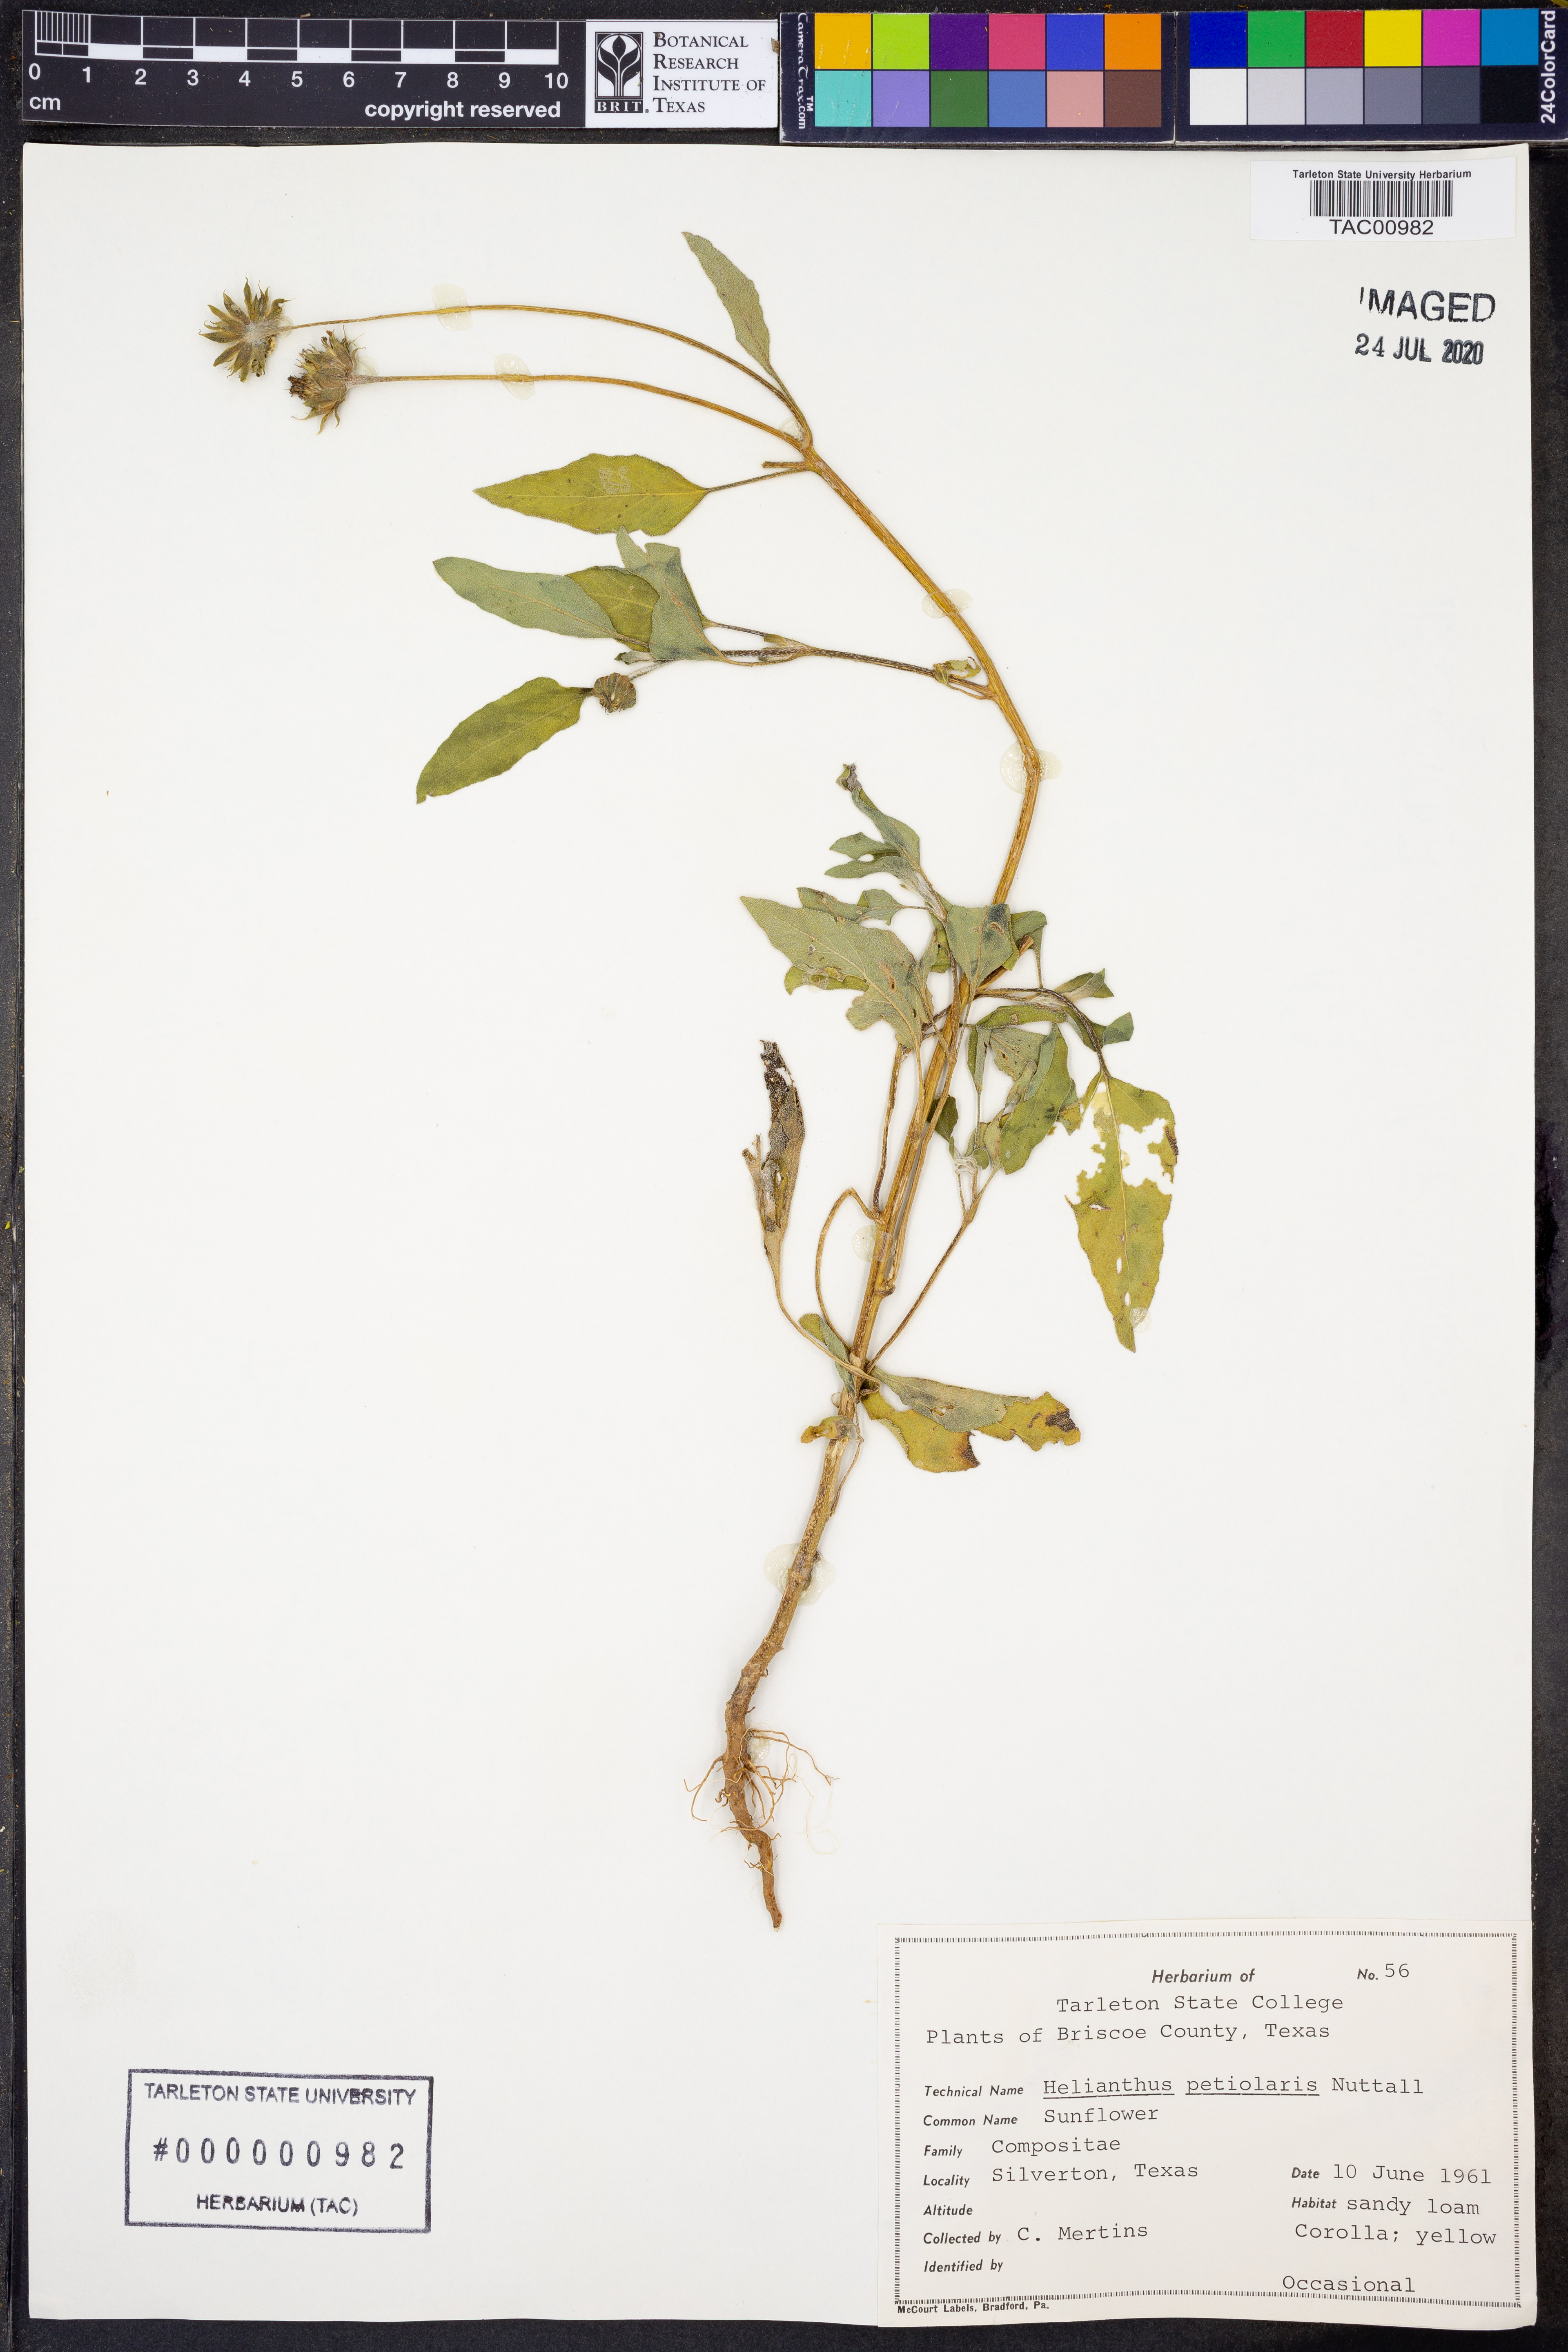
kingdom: Plantae
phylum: Tracheophyta
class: Magnoliopsida
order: Asterales
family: Asteraceae
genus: Helianthus
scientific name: Helianthus petiolaris
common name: Lesser sunflower
